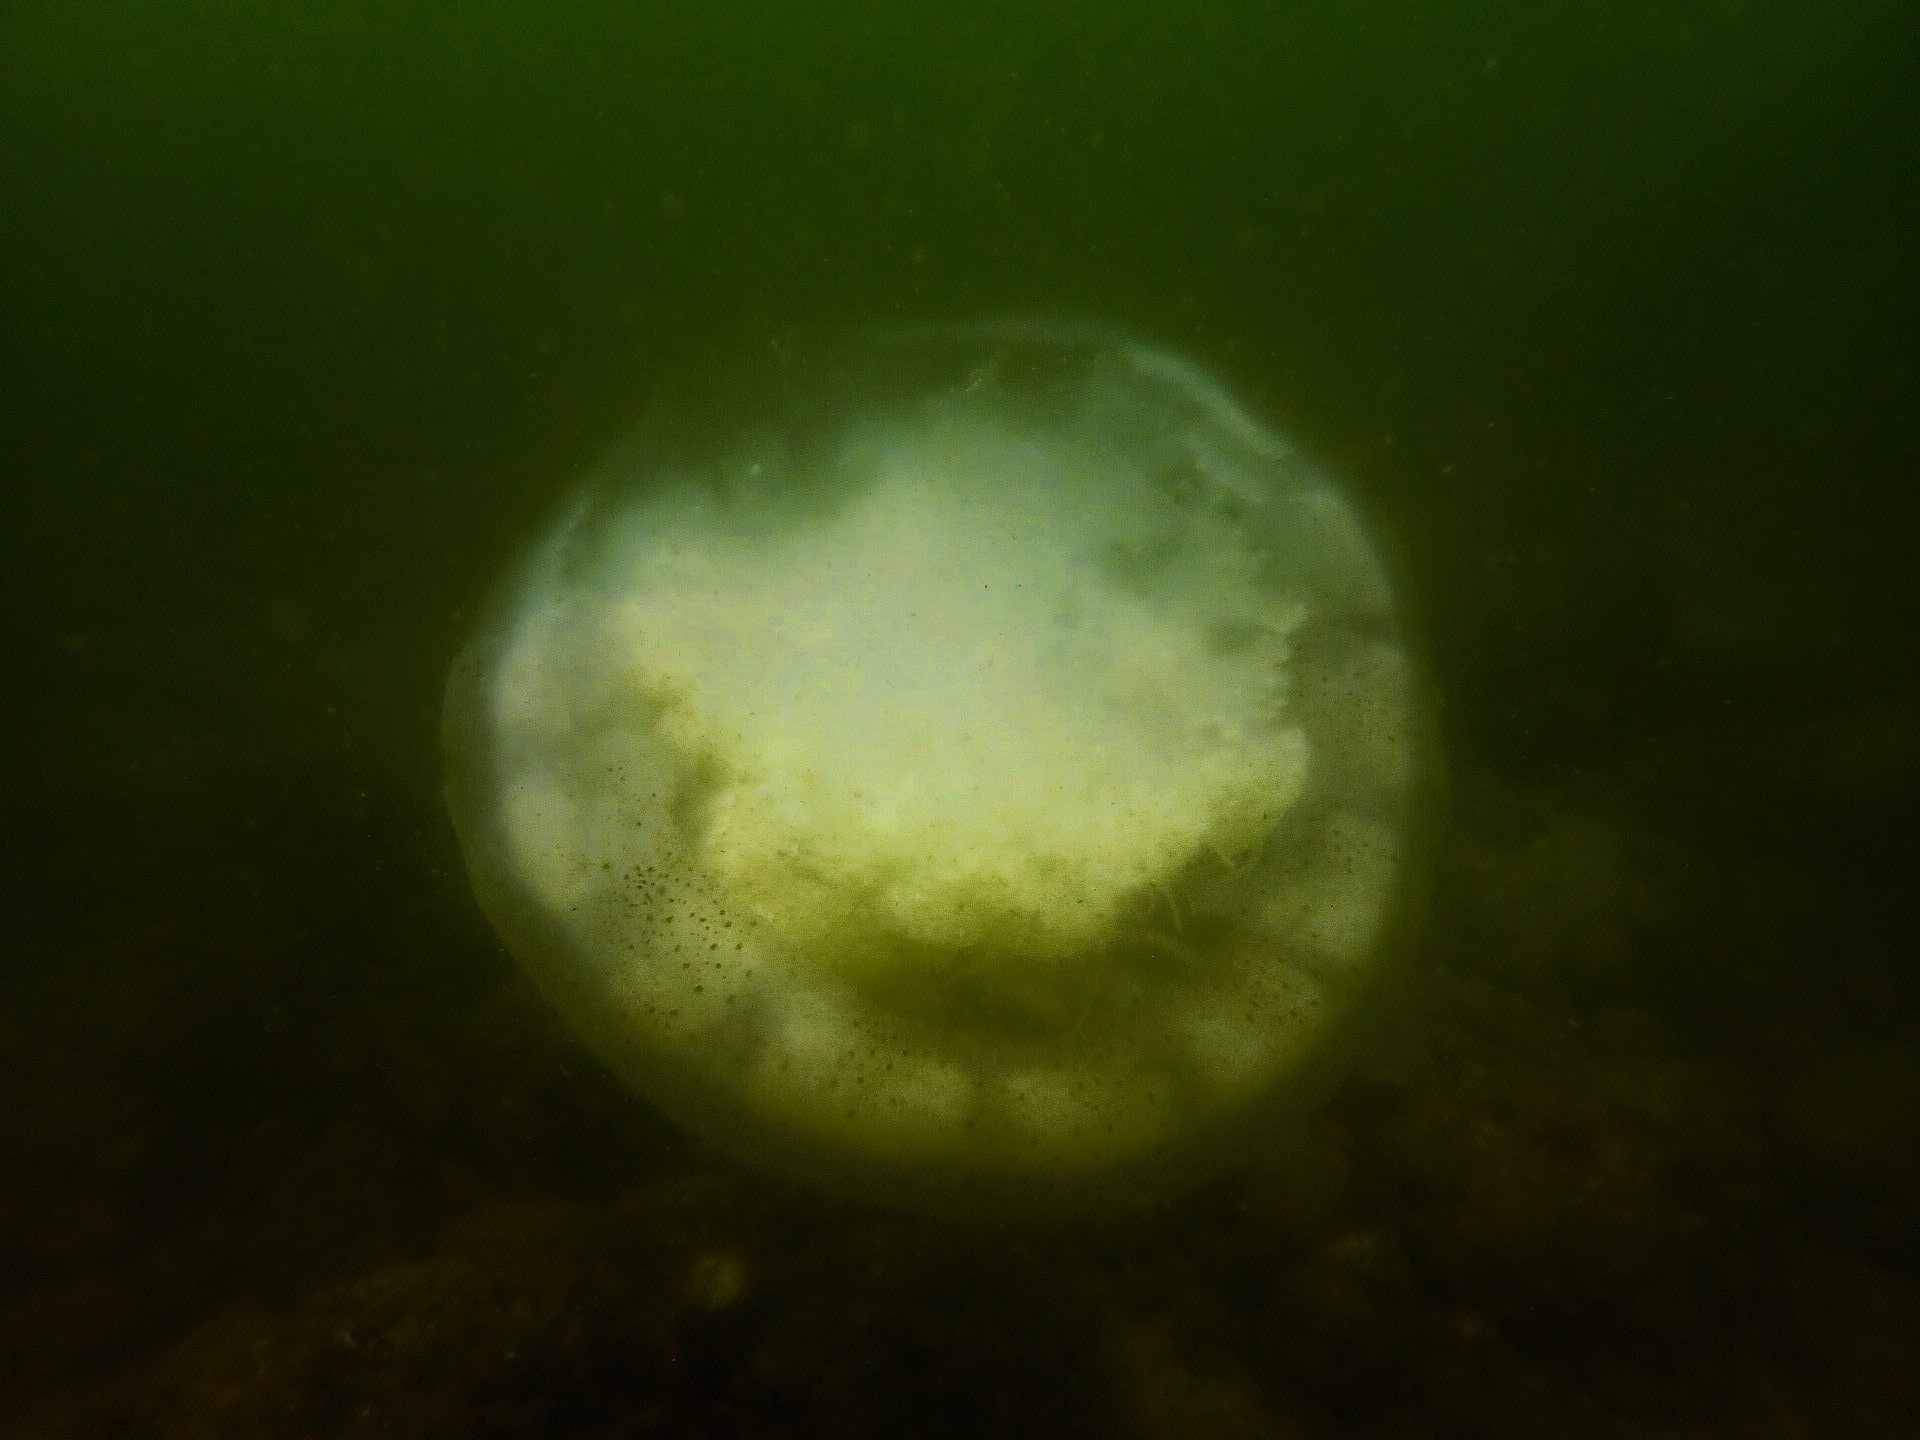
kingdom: Animalia
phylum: Cnidaria
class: Scyphozoa
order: Rhizostomeae
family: Rhizostomatidae
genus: Rhopilema
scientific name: Rhopilema hispidum
